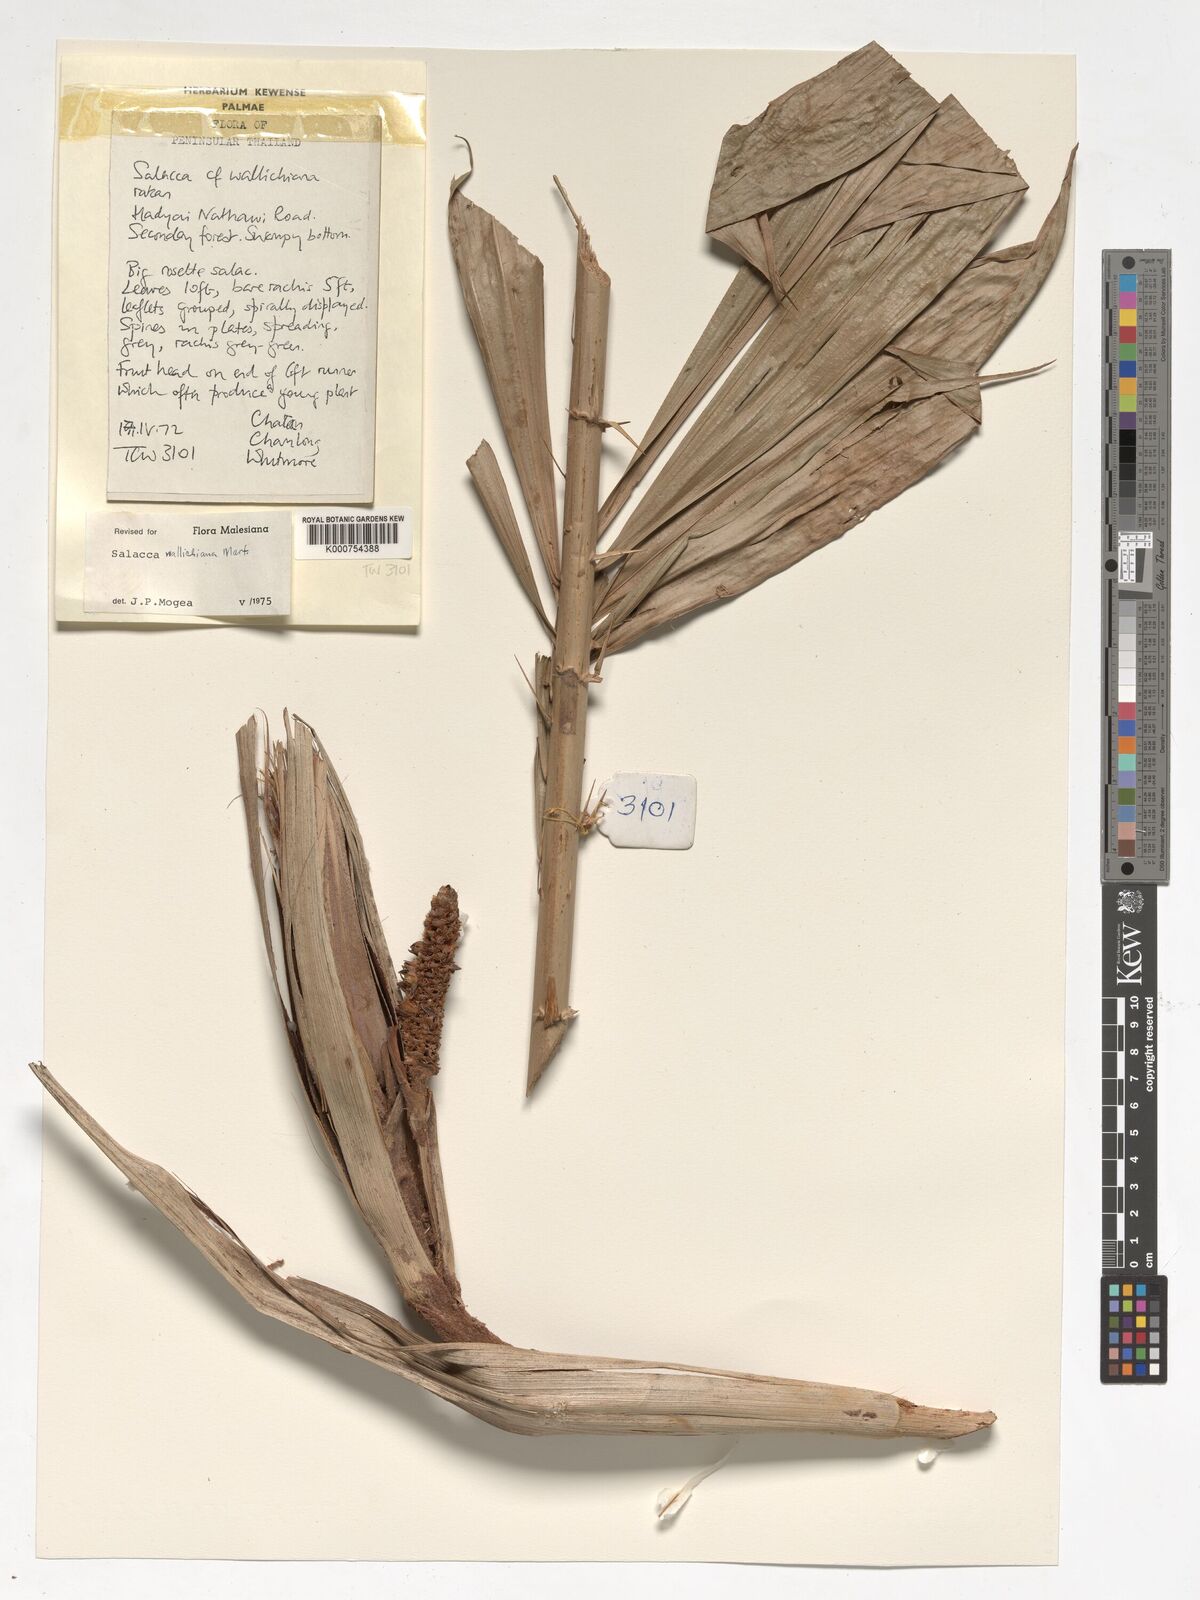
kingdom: Plantae
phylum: Tracheophyta
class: Liliopsida
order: Arecales
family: Arecaceae
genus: Salacca
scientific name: Salacca wallichiana
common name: Rakum palm
